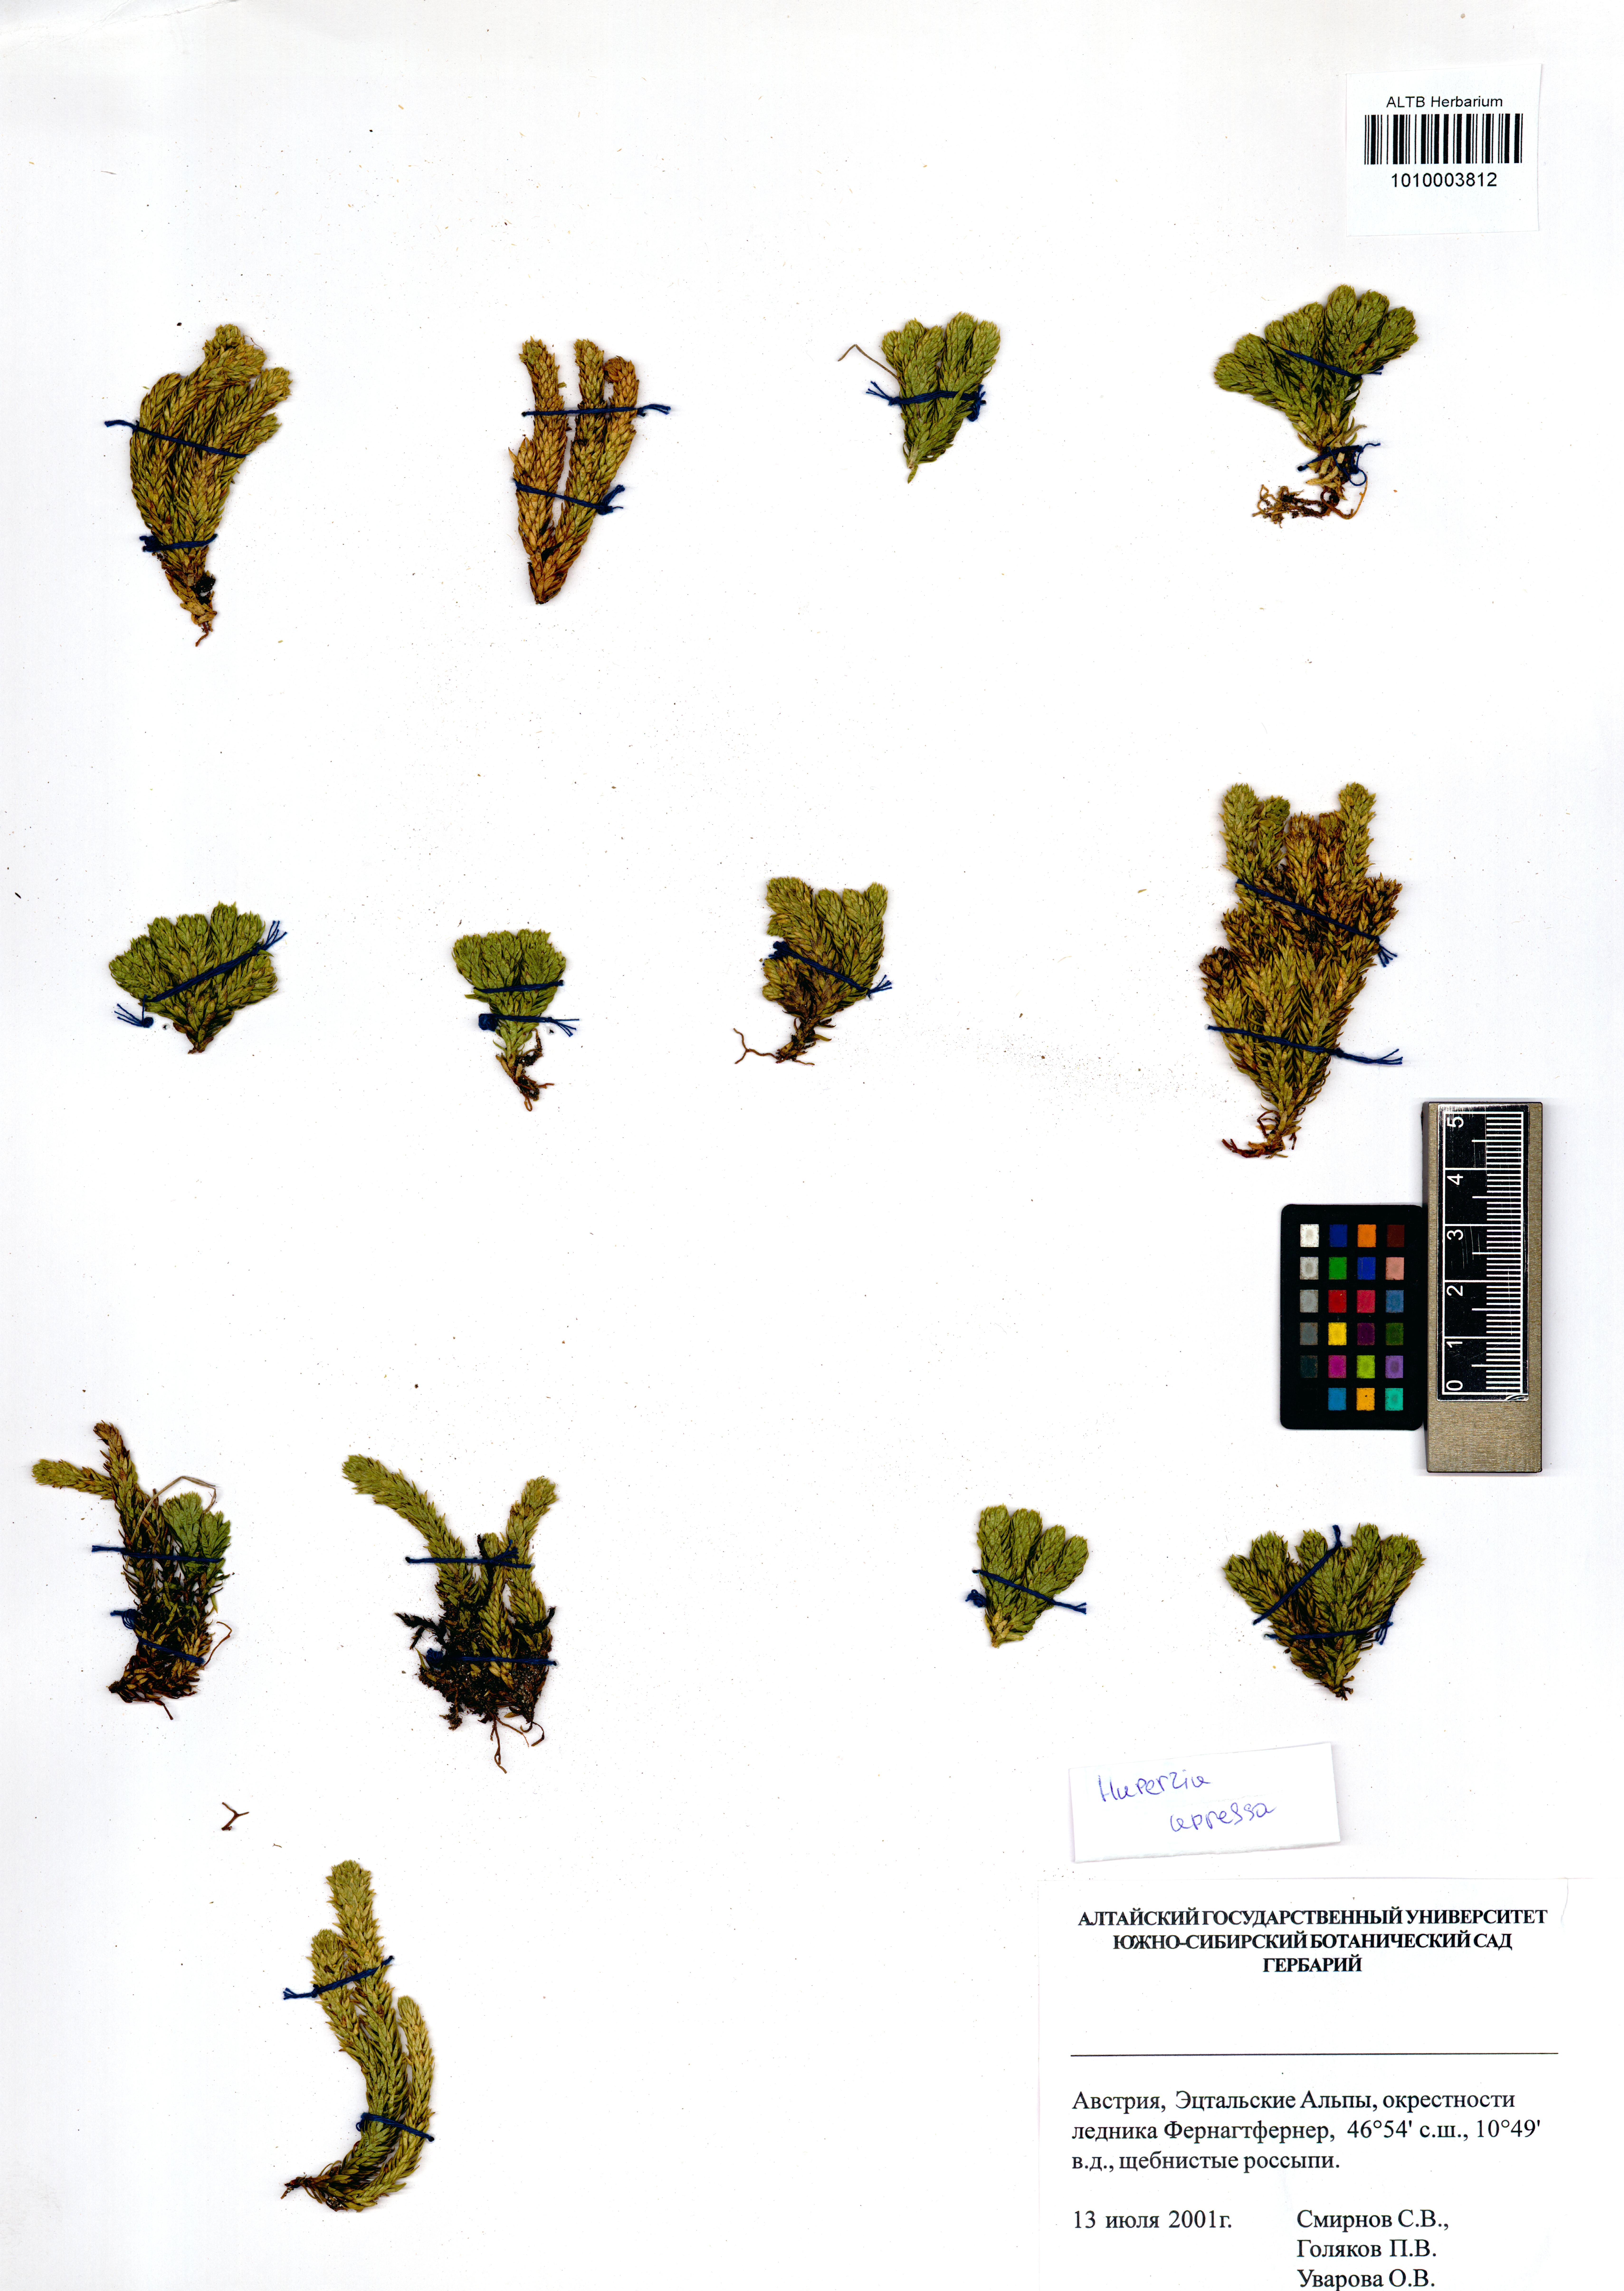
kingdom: Plantae
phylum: Tracheophyta
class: Lycopodiopsida
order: Lycopodiales
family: Lycopodiaceae
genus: Huperzia
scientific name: Huperzia selago
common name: Northern firmoss
